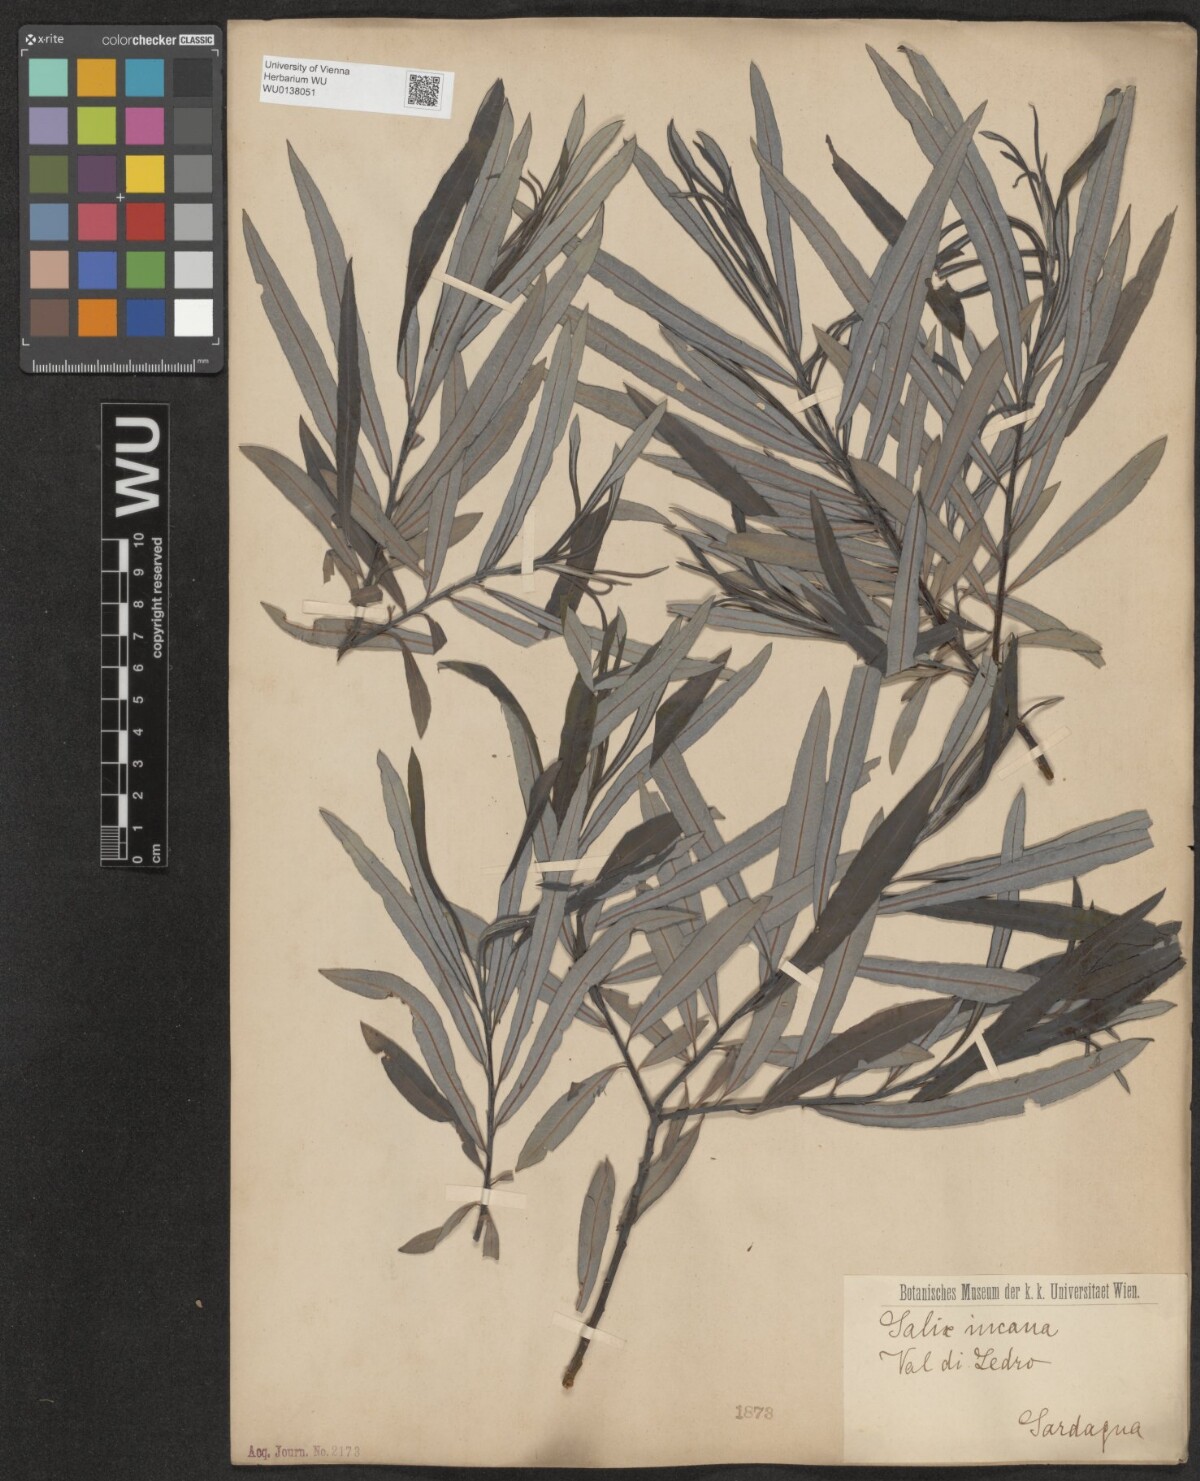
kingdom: Plantae
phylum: Tracheophyta
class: Magnoliopsida
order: Malpighiales
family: Salicaceae
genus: Salix
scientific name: Salix eleagnos
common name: Elaeagnus willow
